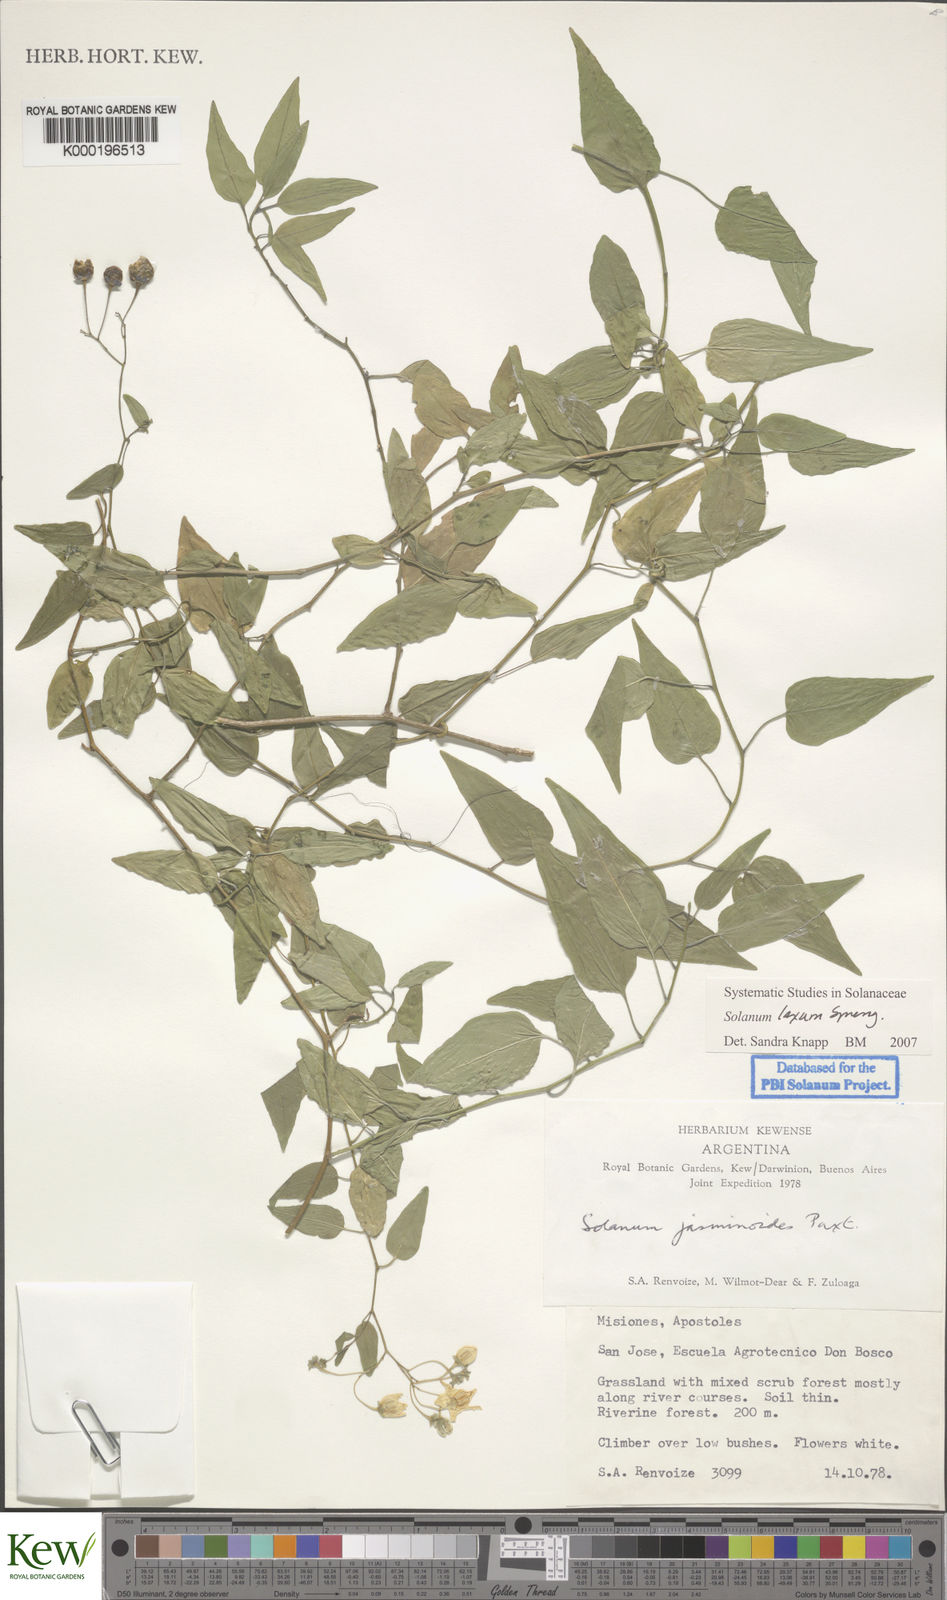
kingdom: Plantae
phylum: Tracheophyta
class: Magnoliopsida
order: Solanales
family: Solanaceae
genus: Solanum
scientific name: Solanum laxum
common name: Nightshade
